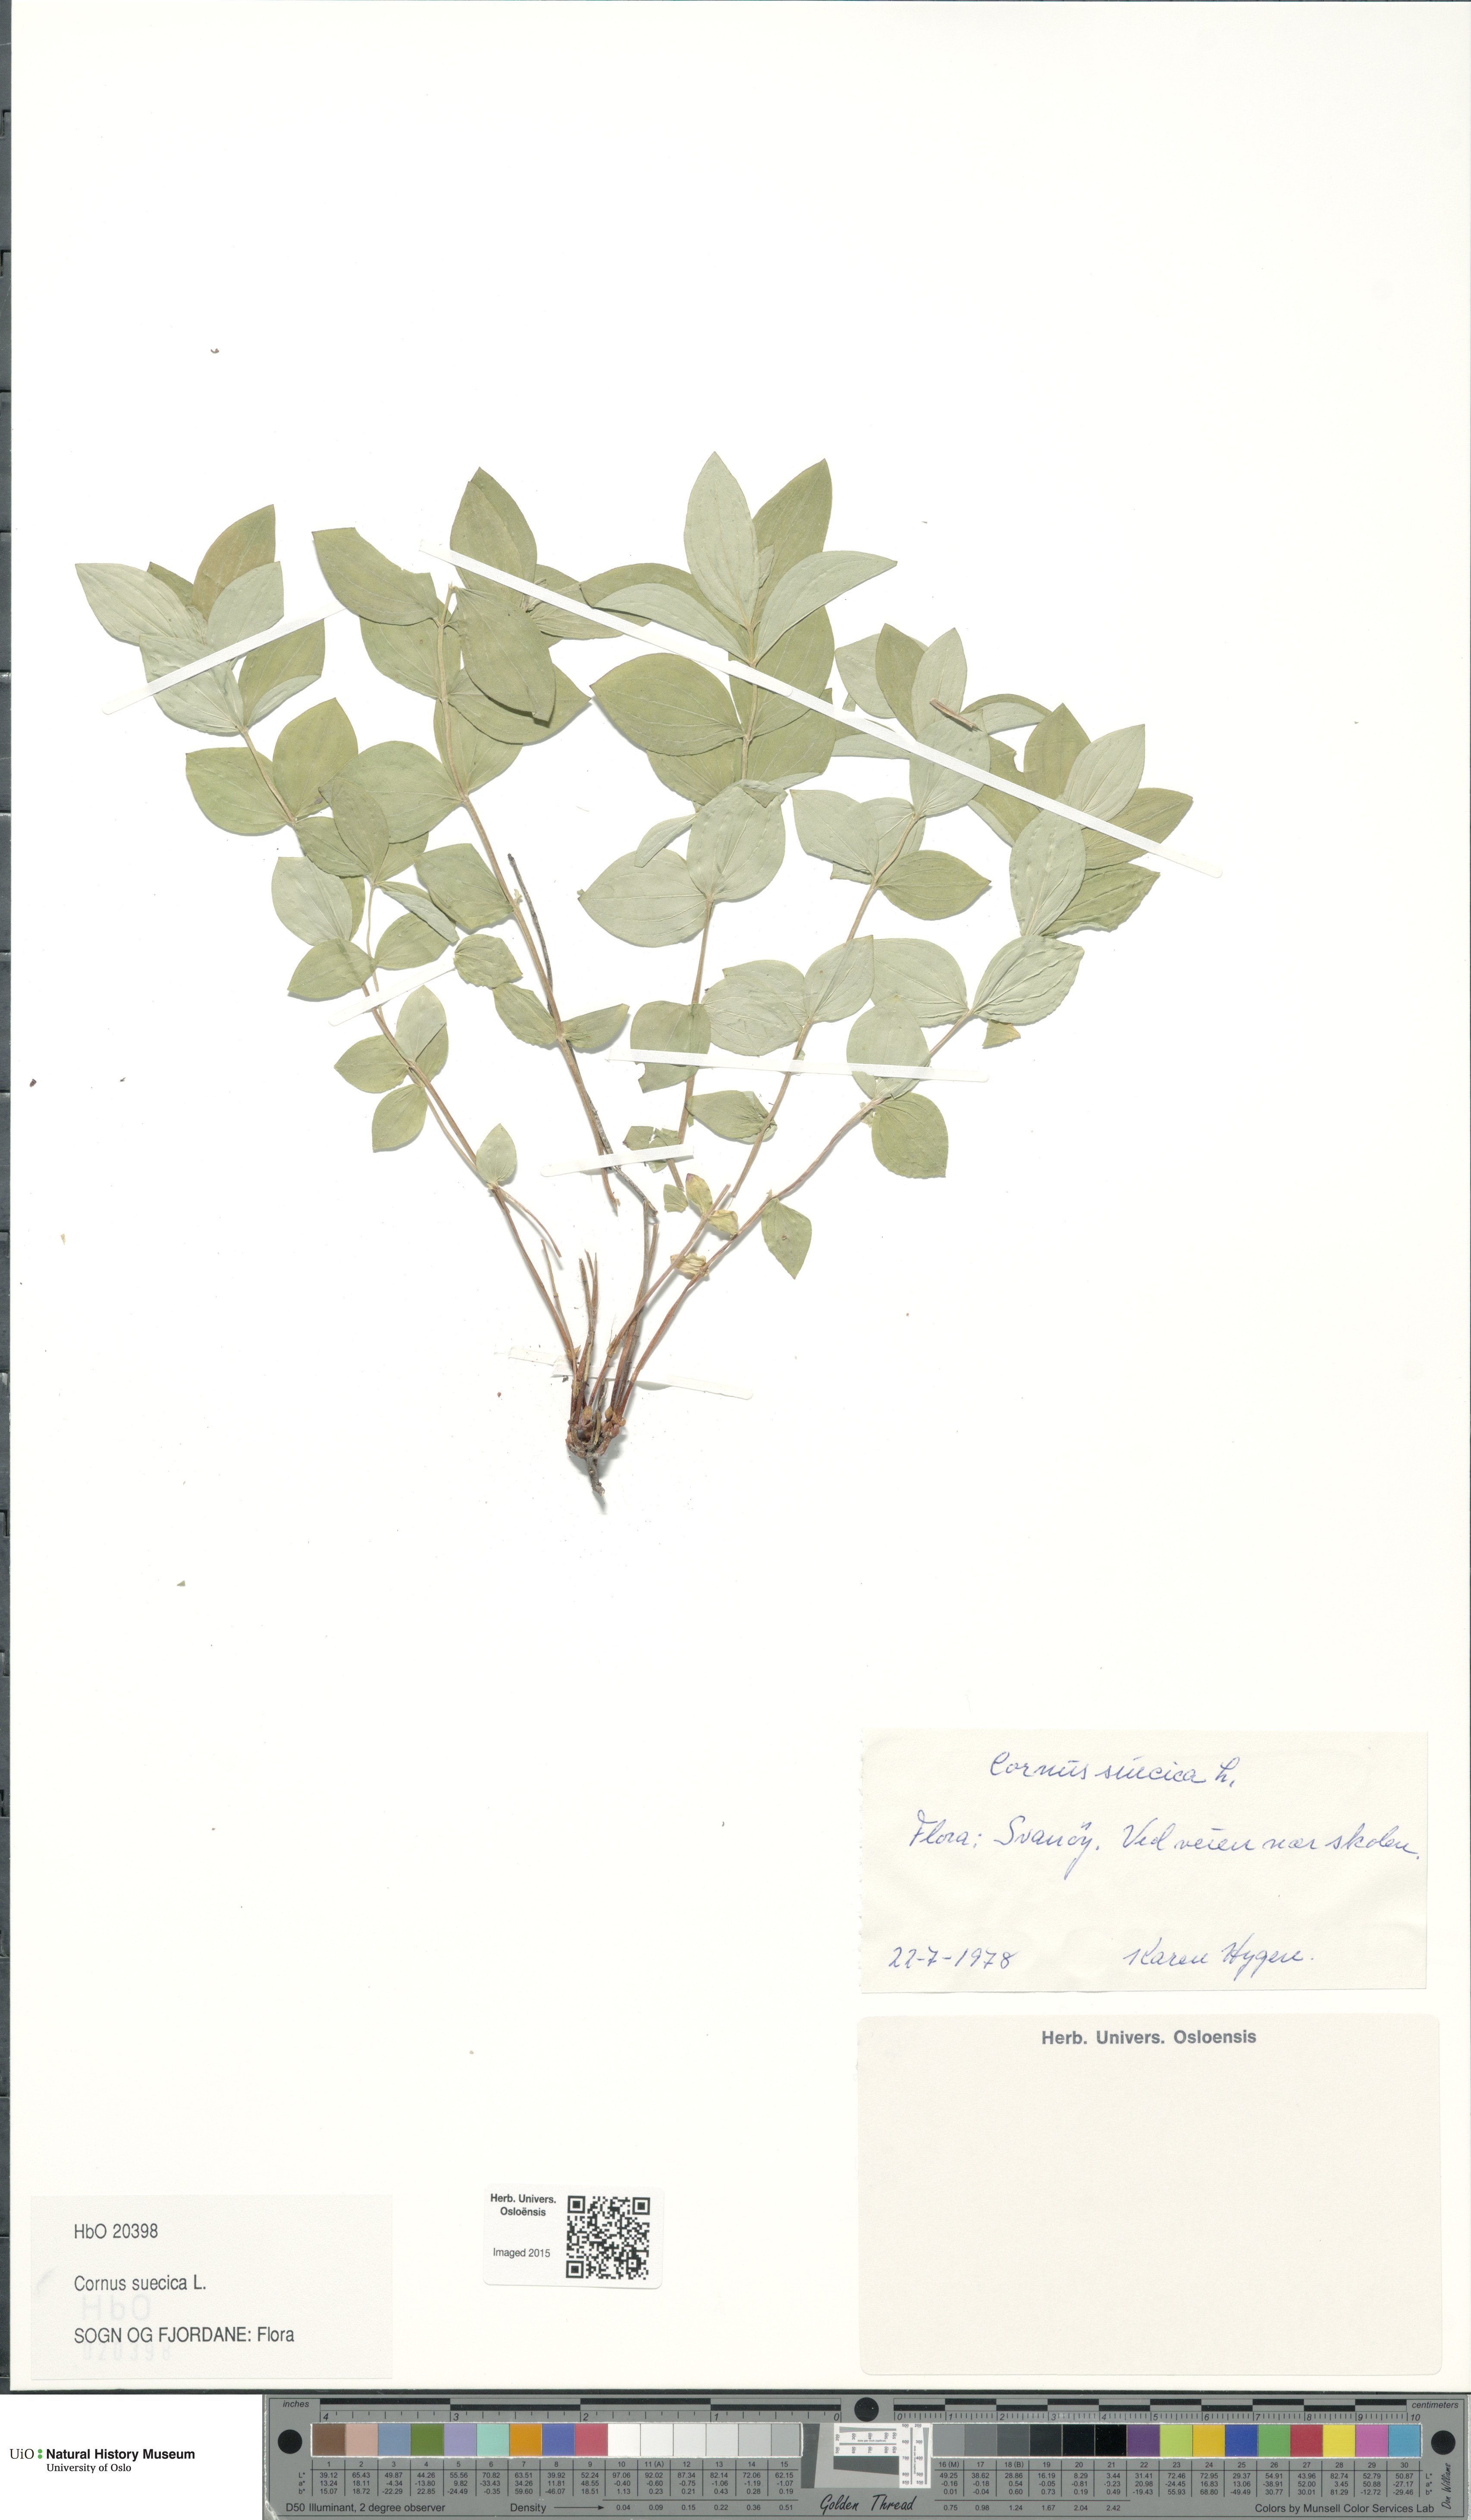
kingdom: Plantae
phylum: Tracheophyta
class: Magnoliopsida
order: Cornales
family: Cornaceae
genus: Cornus
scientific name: Cornus suecica
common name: Dwarf cornel
